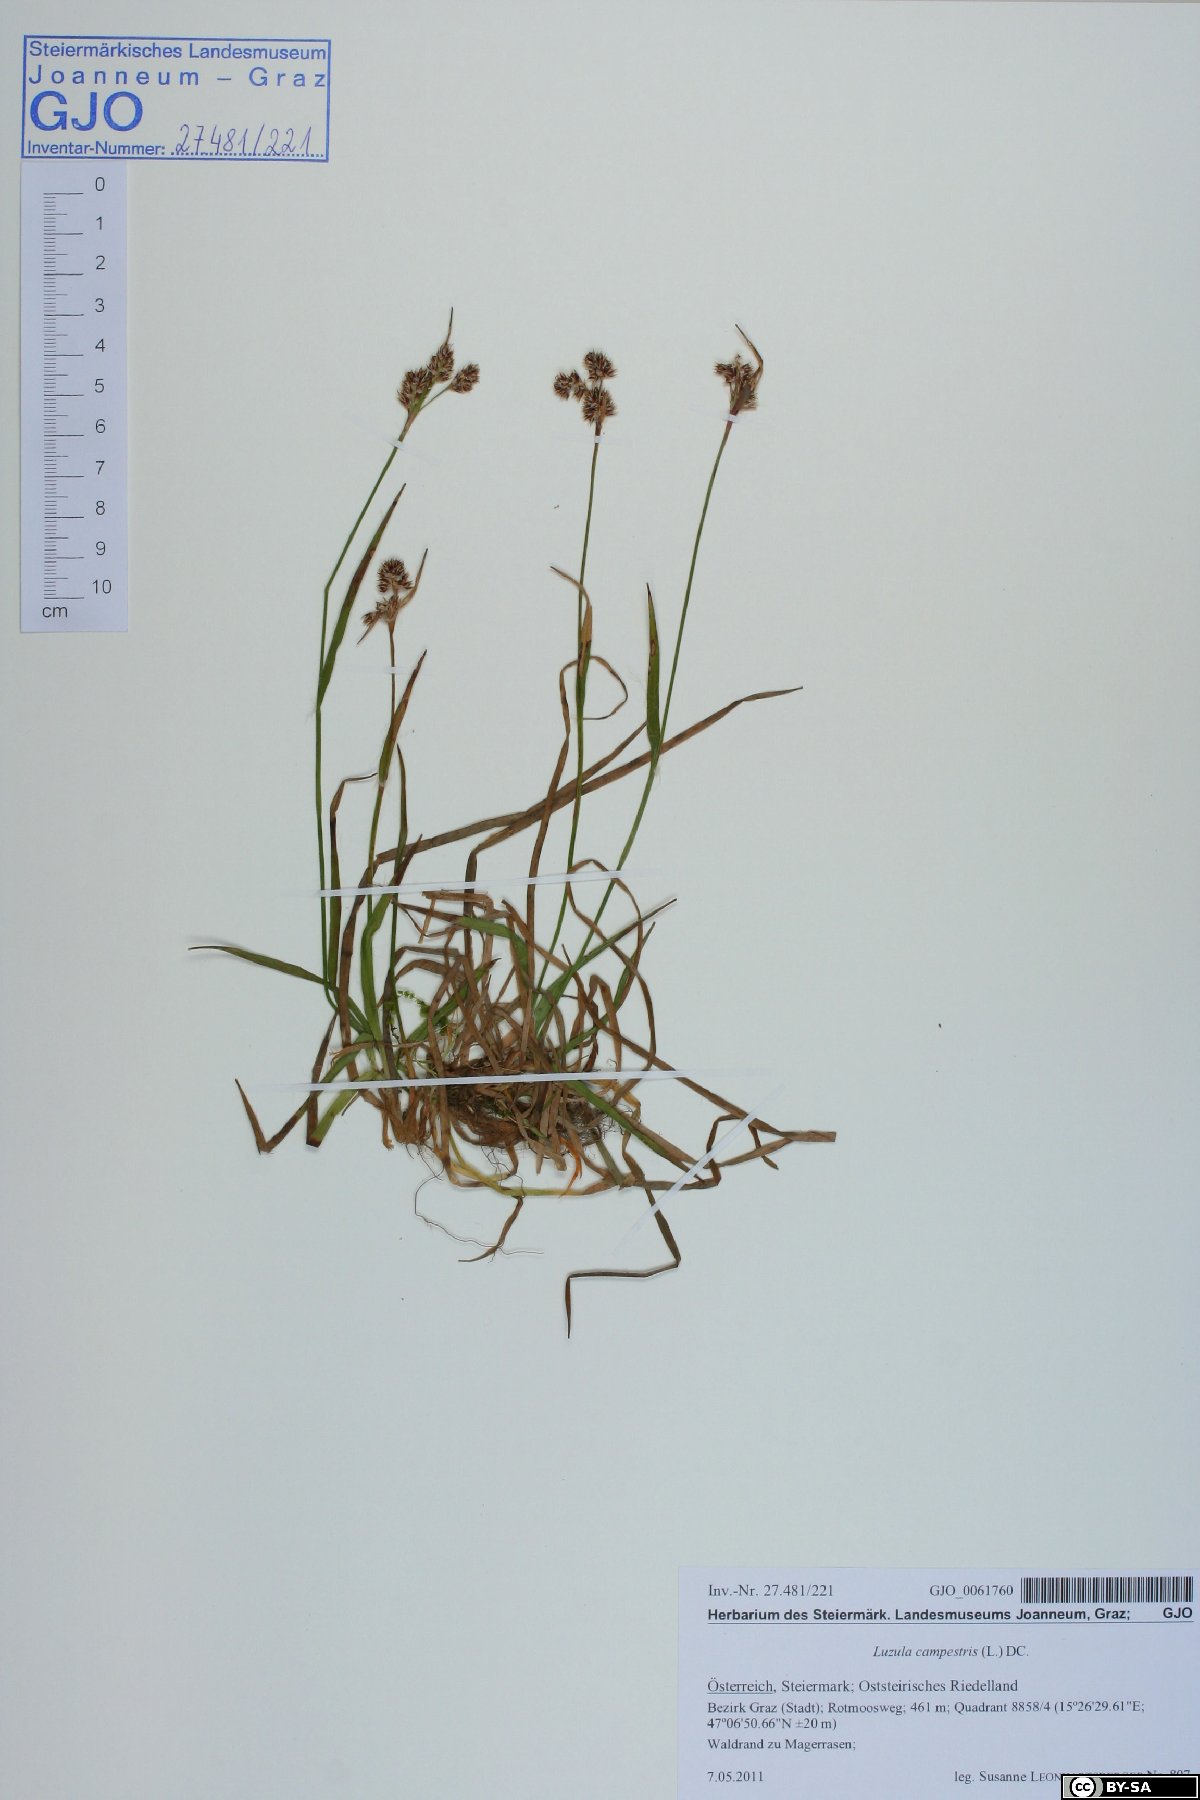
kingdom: Plantae
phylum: Tracheophyta
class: Liliopsida
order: Poales
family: Juncaceae
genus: Luzula
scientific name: Luzula campestris
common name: Field wood-rush
